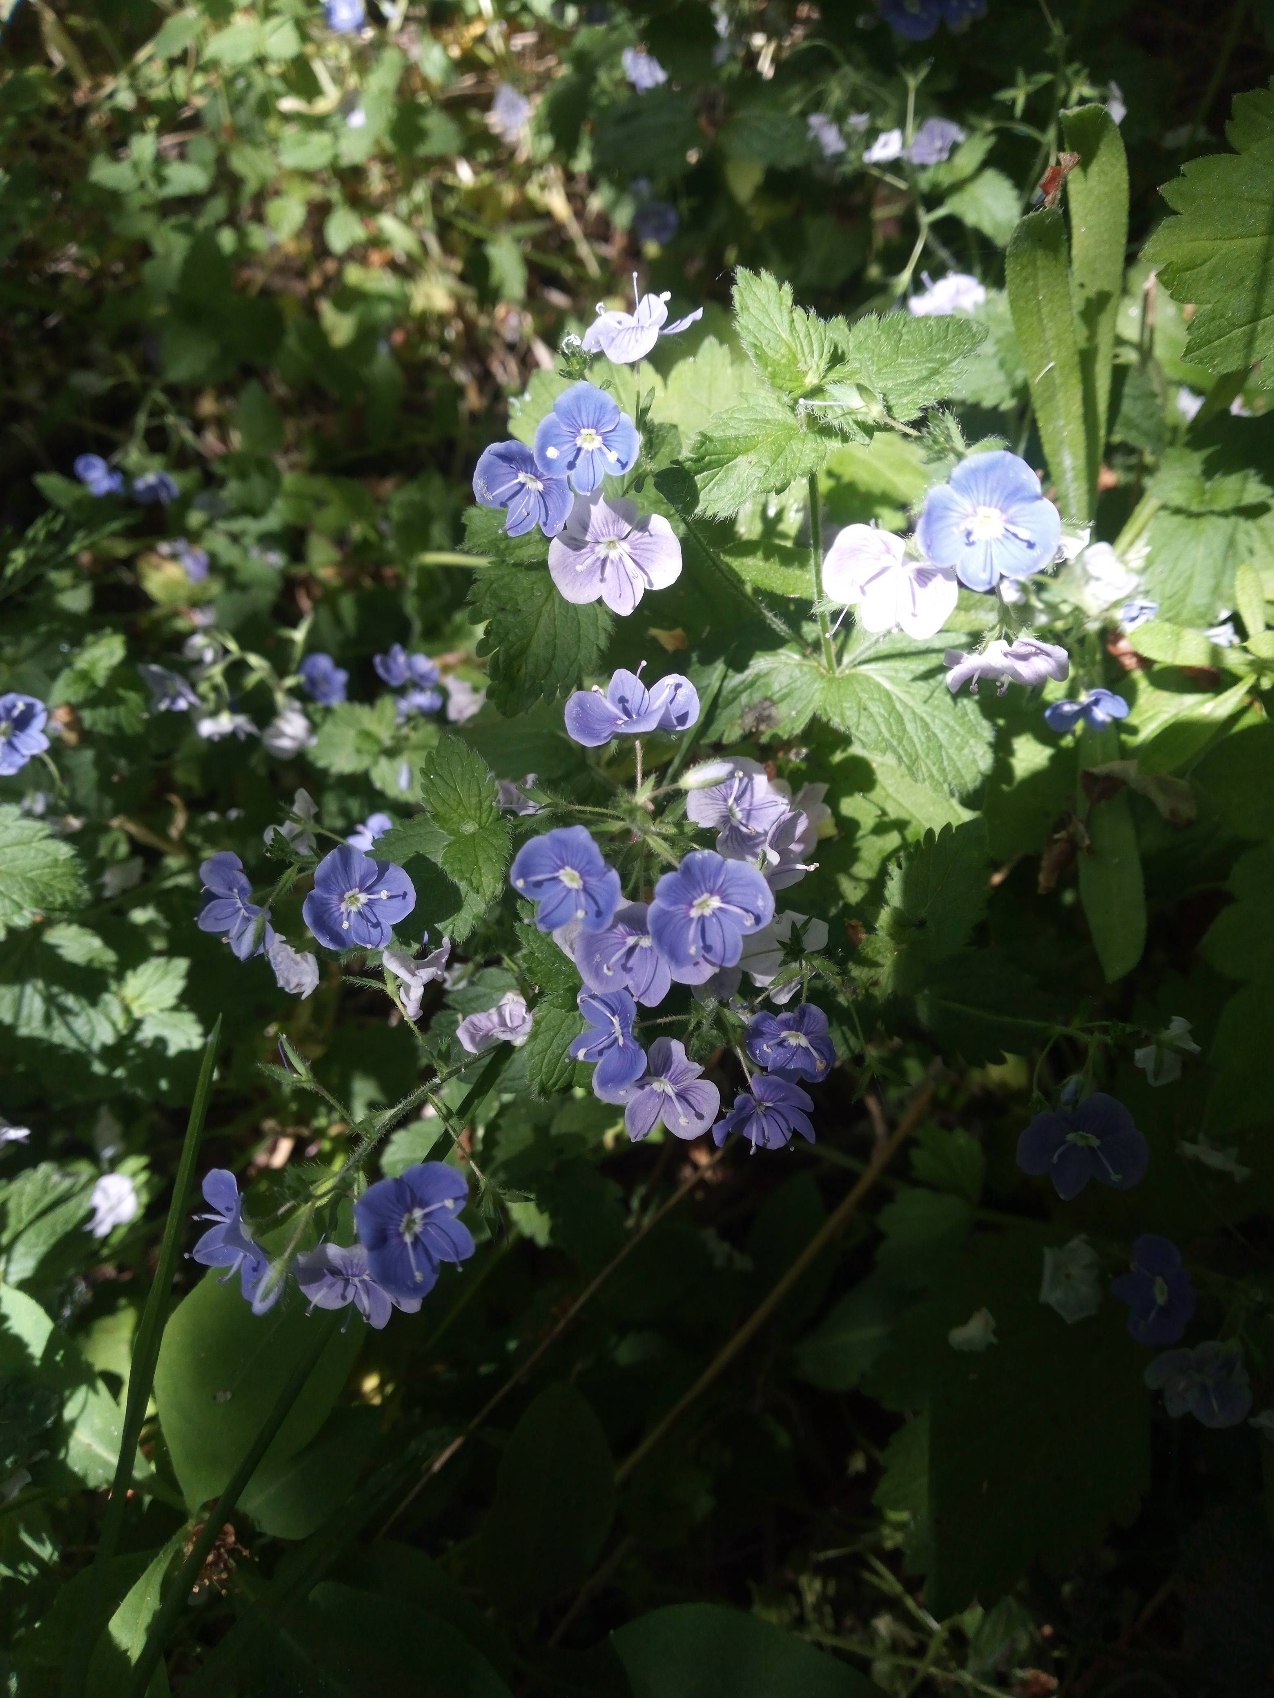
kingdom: Plantae
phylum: Tracheophyta
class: Magnoliopsida
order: Lamiales
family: Plantaginaceae
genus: Veronica
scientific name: Veronica chamaedrys
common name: Tveskægget ærenpris
